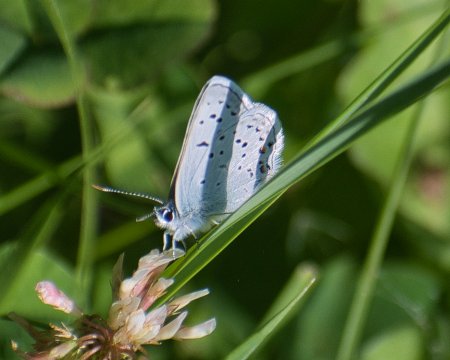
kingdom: Animalia
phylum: Arthropoda
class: Insecta
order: Lepidoptera
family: Lycaenidae
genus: Plebejus
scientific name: Plebejus saepiolus
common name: Greenish Blue
